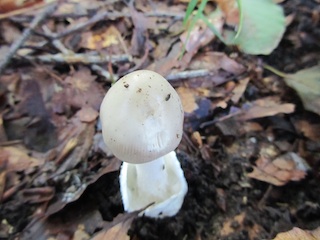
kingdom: Fungi
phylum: Basidiomycota
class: Agaricomycetes
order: Agaricales
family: Amanitaceae
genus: Amanita
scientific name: Amanita vaginata
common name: grå kam-fluesvamp
